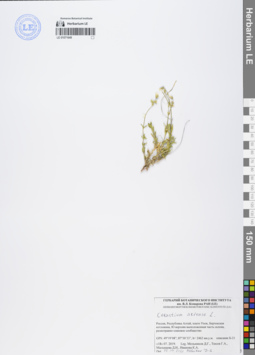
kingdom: Plantae
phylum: Tracheophyta
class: Magnoliopsida
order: Caryophyllales
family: Caryophyllaceae
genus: Cerastium
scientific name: Cerastium arvense
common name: Field mouse-ear
